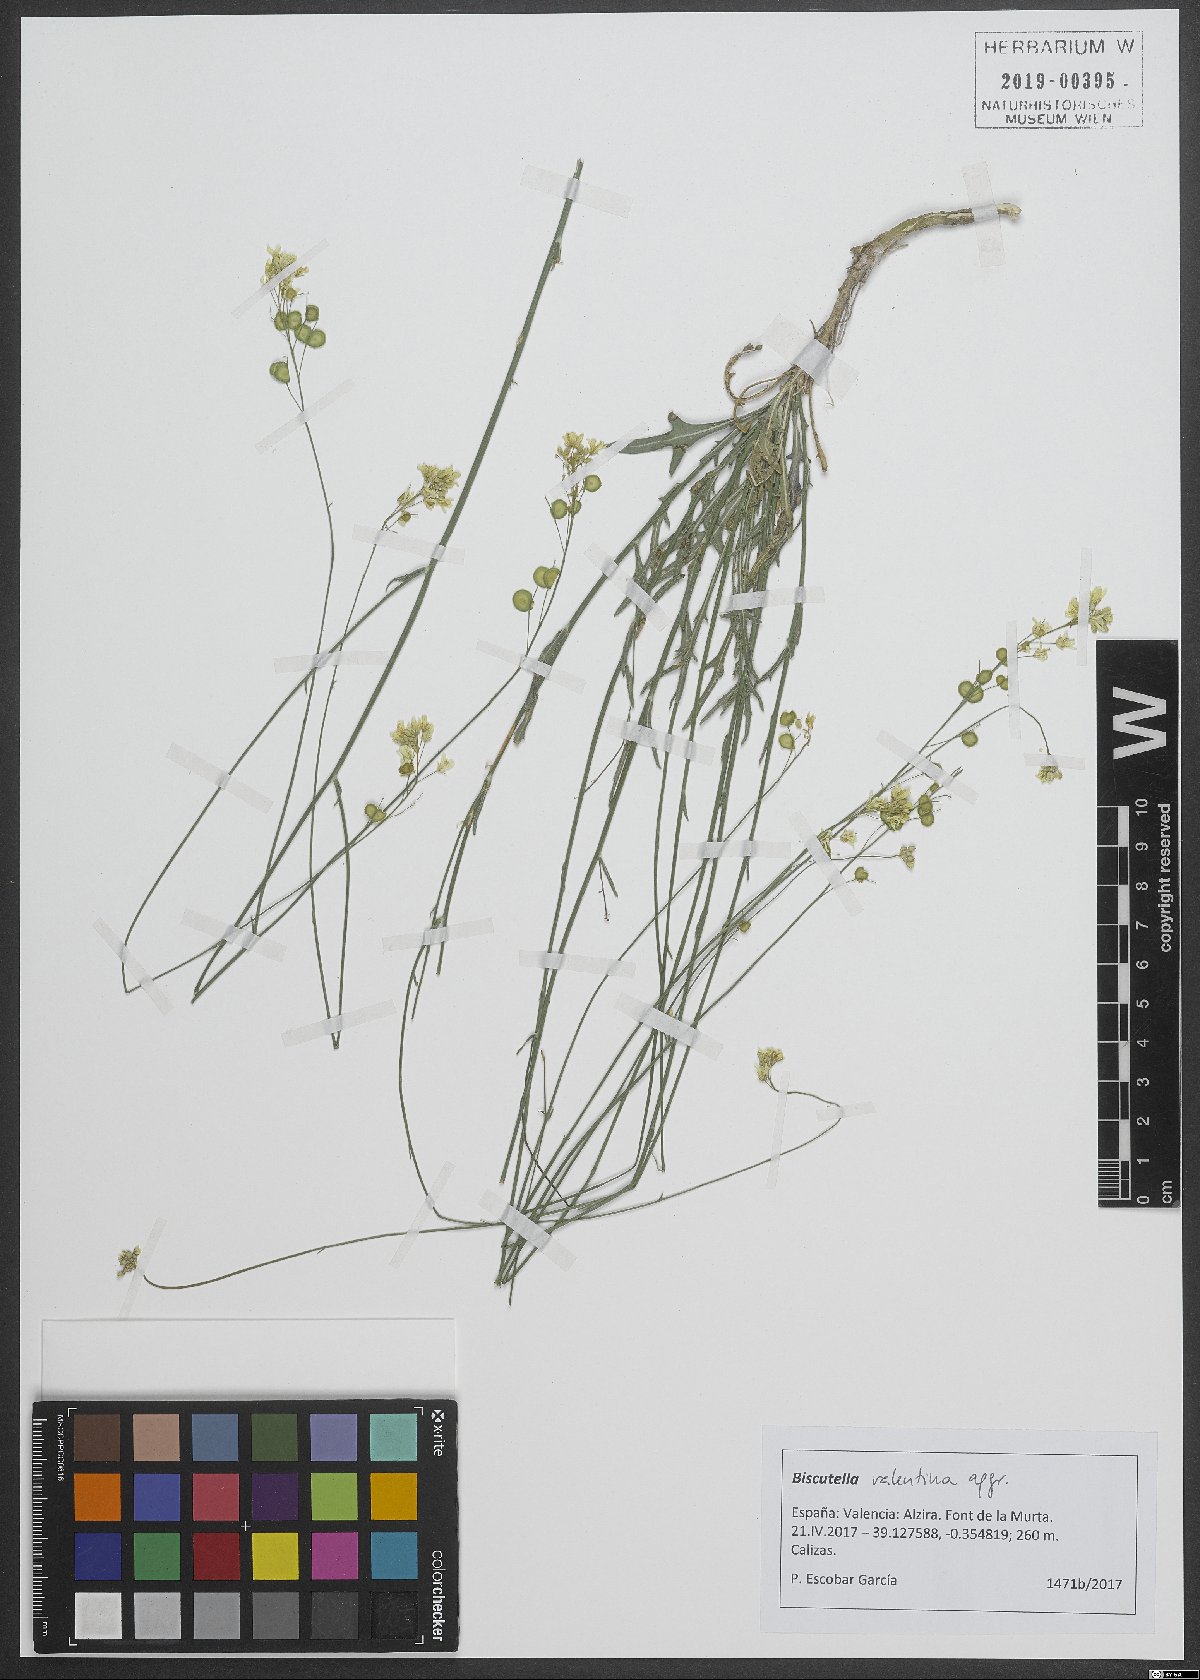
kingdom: Plantae
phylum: Tracheophyta
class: Magnoliopsida
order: Brassicales
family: Brassicaceae
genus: Biscutella
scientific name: Biscutella valentina
